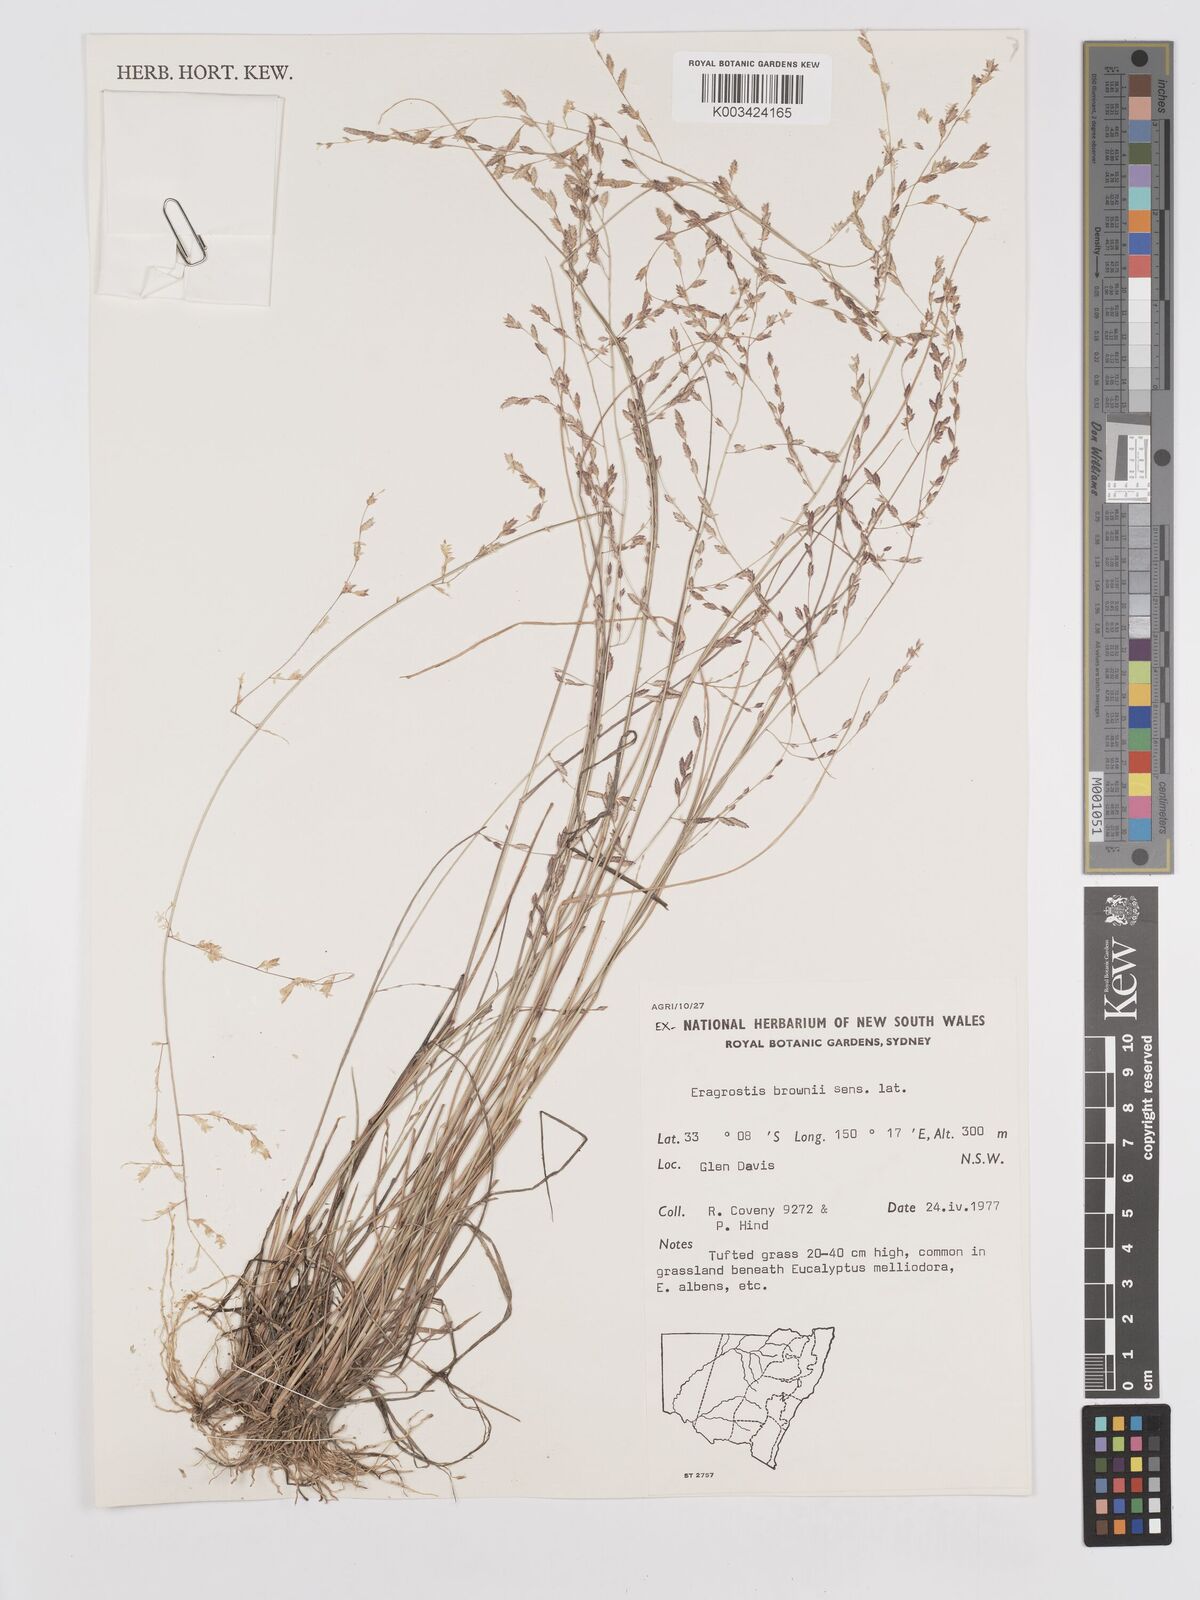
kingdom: Plantae
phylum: Tracheophyta
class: Liliopsida
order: Poales
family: Poaceae
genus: Eragrostis
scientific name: Eragrostis brownii
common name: Lovegrass
